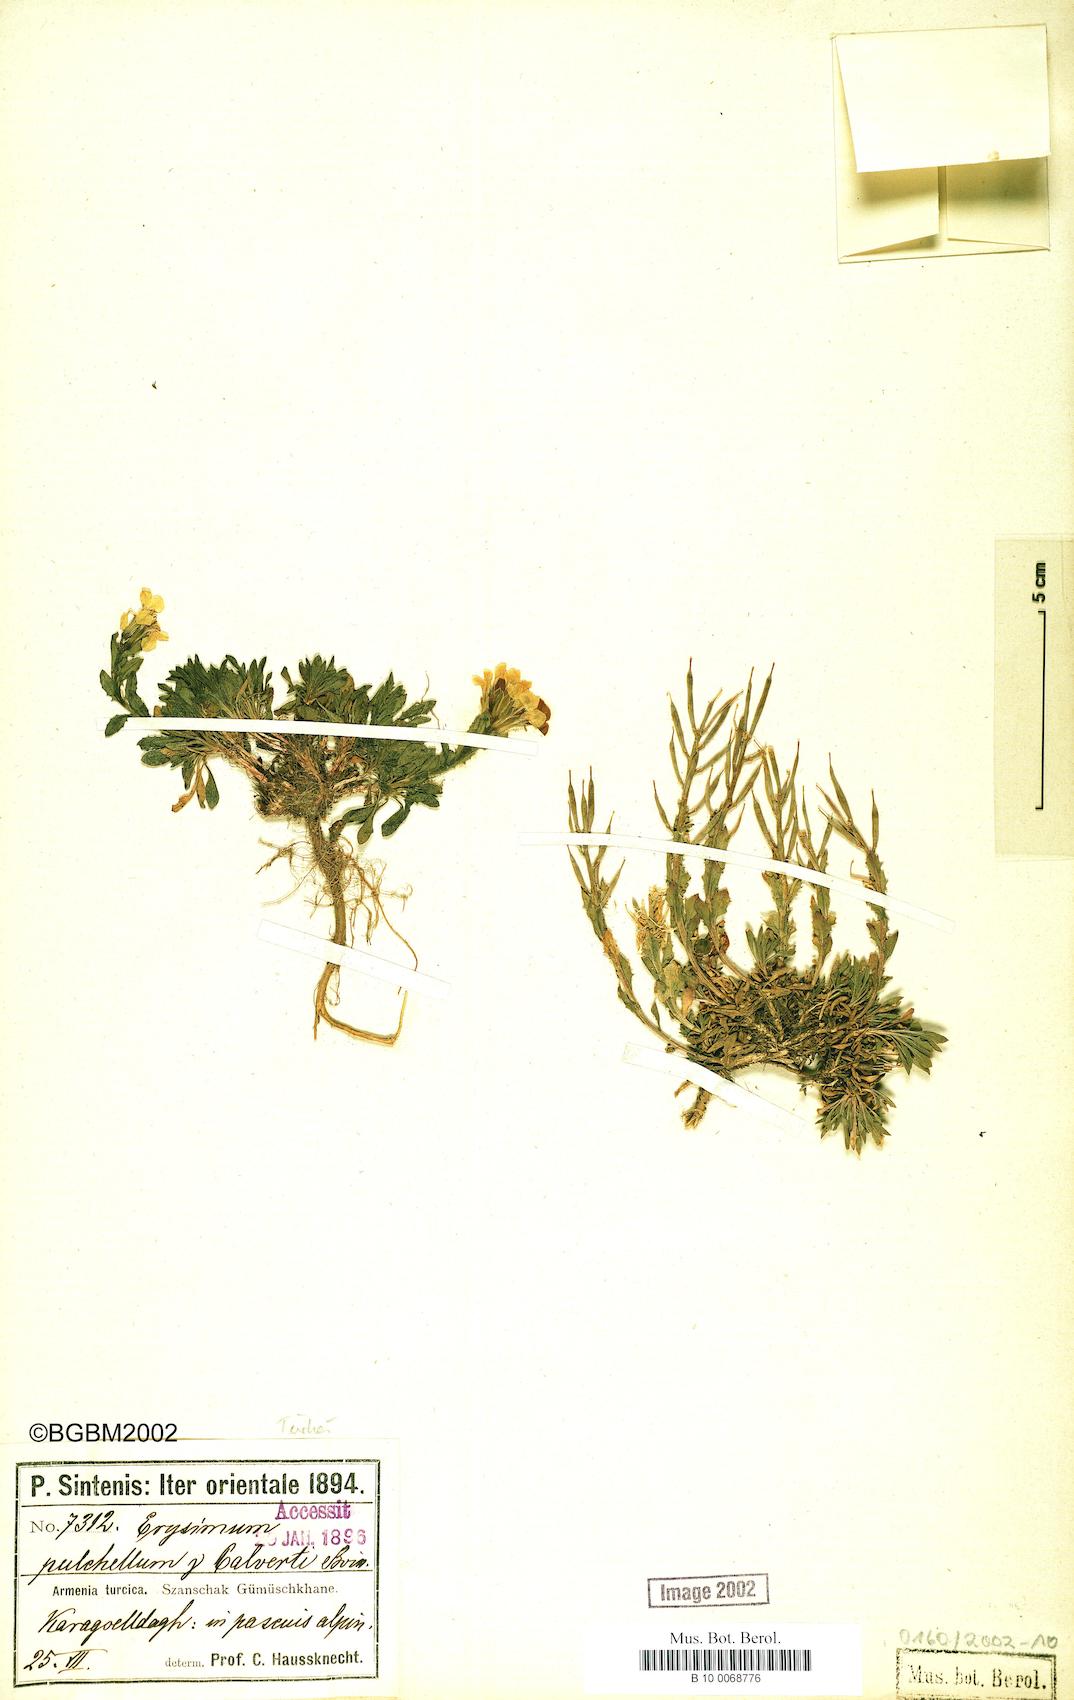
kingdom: Plantae
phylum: Tracheophyta
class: Magnoliopsida
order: Brassicales
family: Brassicaceae
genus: Erysimum
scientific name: Erysimum pulchellum
